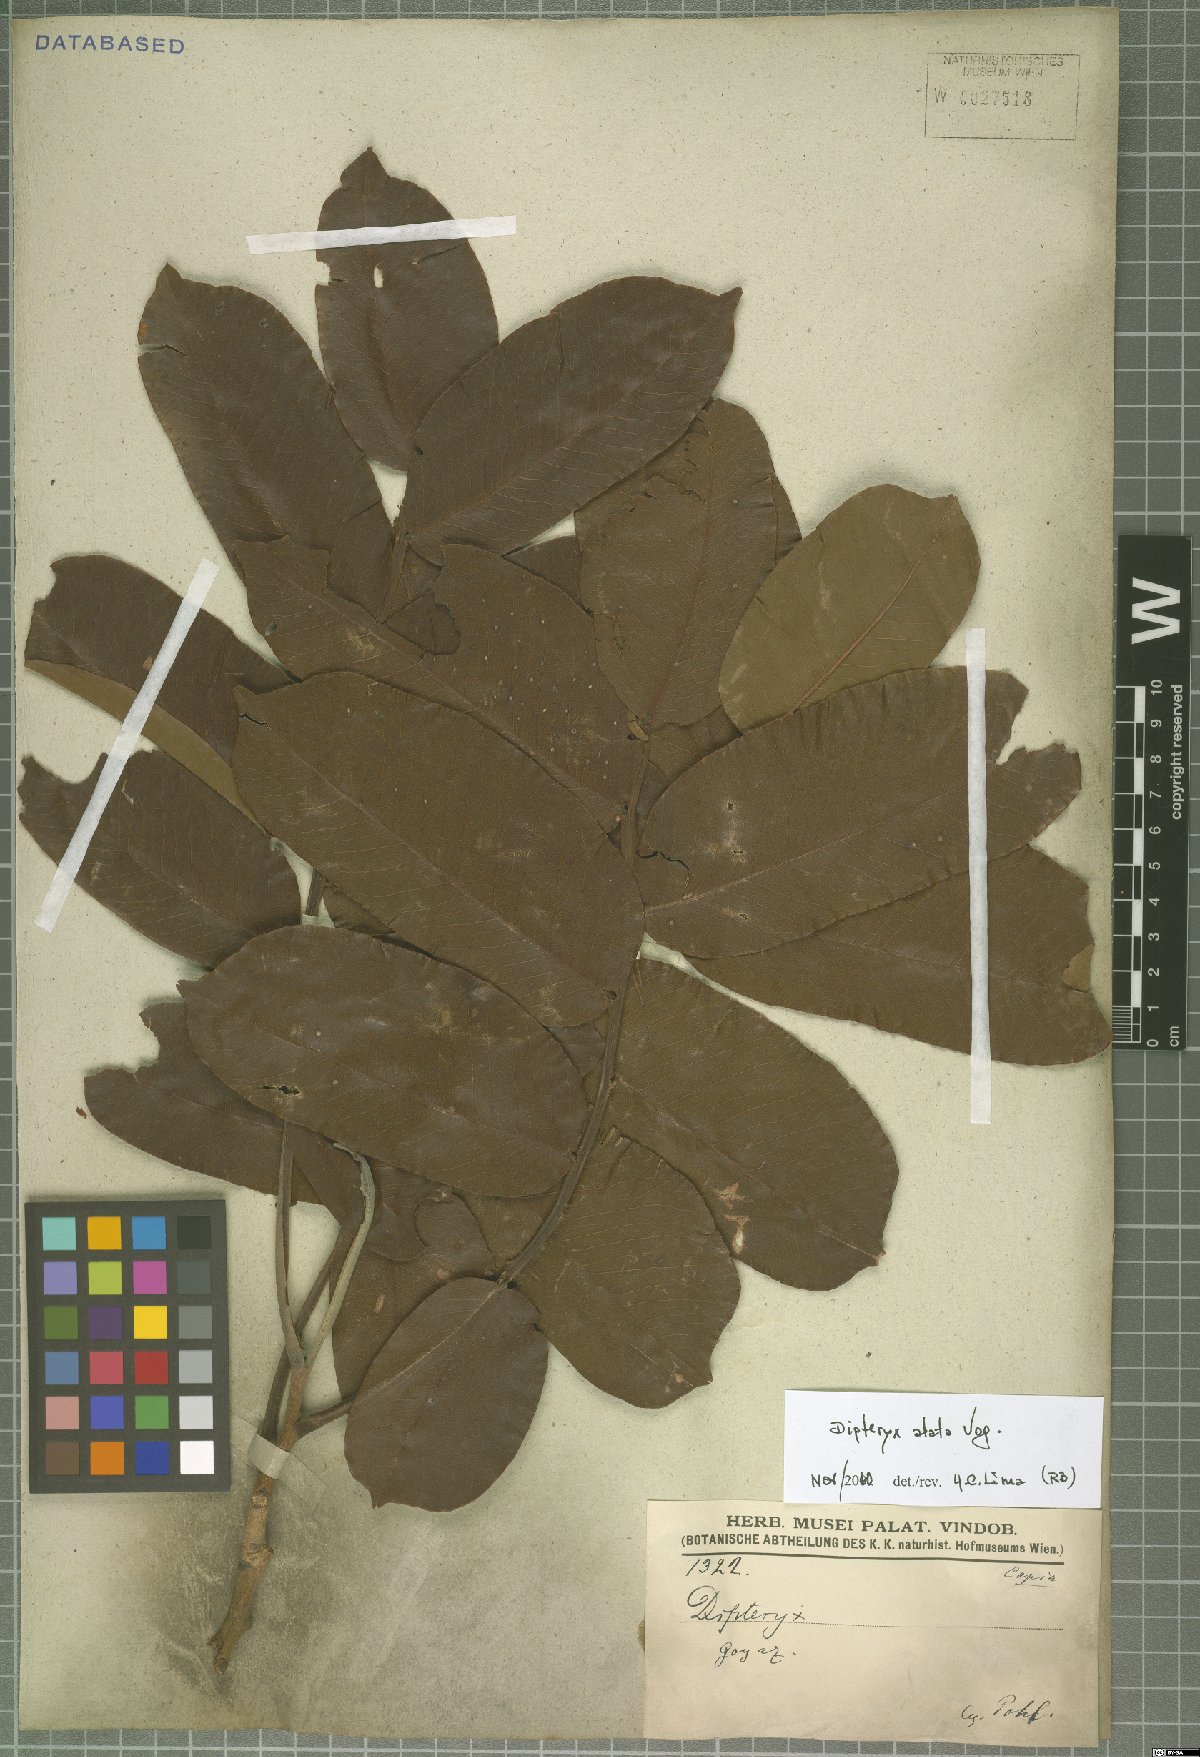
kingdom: Plantae
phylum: Tracheophyta
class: Magnoliopsida
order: Fabales
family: Fabaceae
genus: Dipteryx
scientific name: Dipteryx alata
